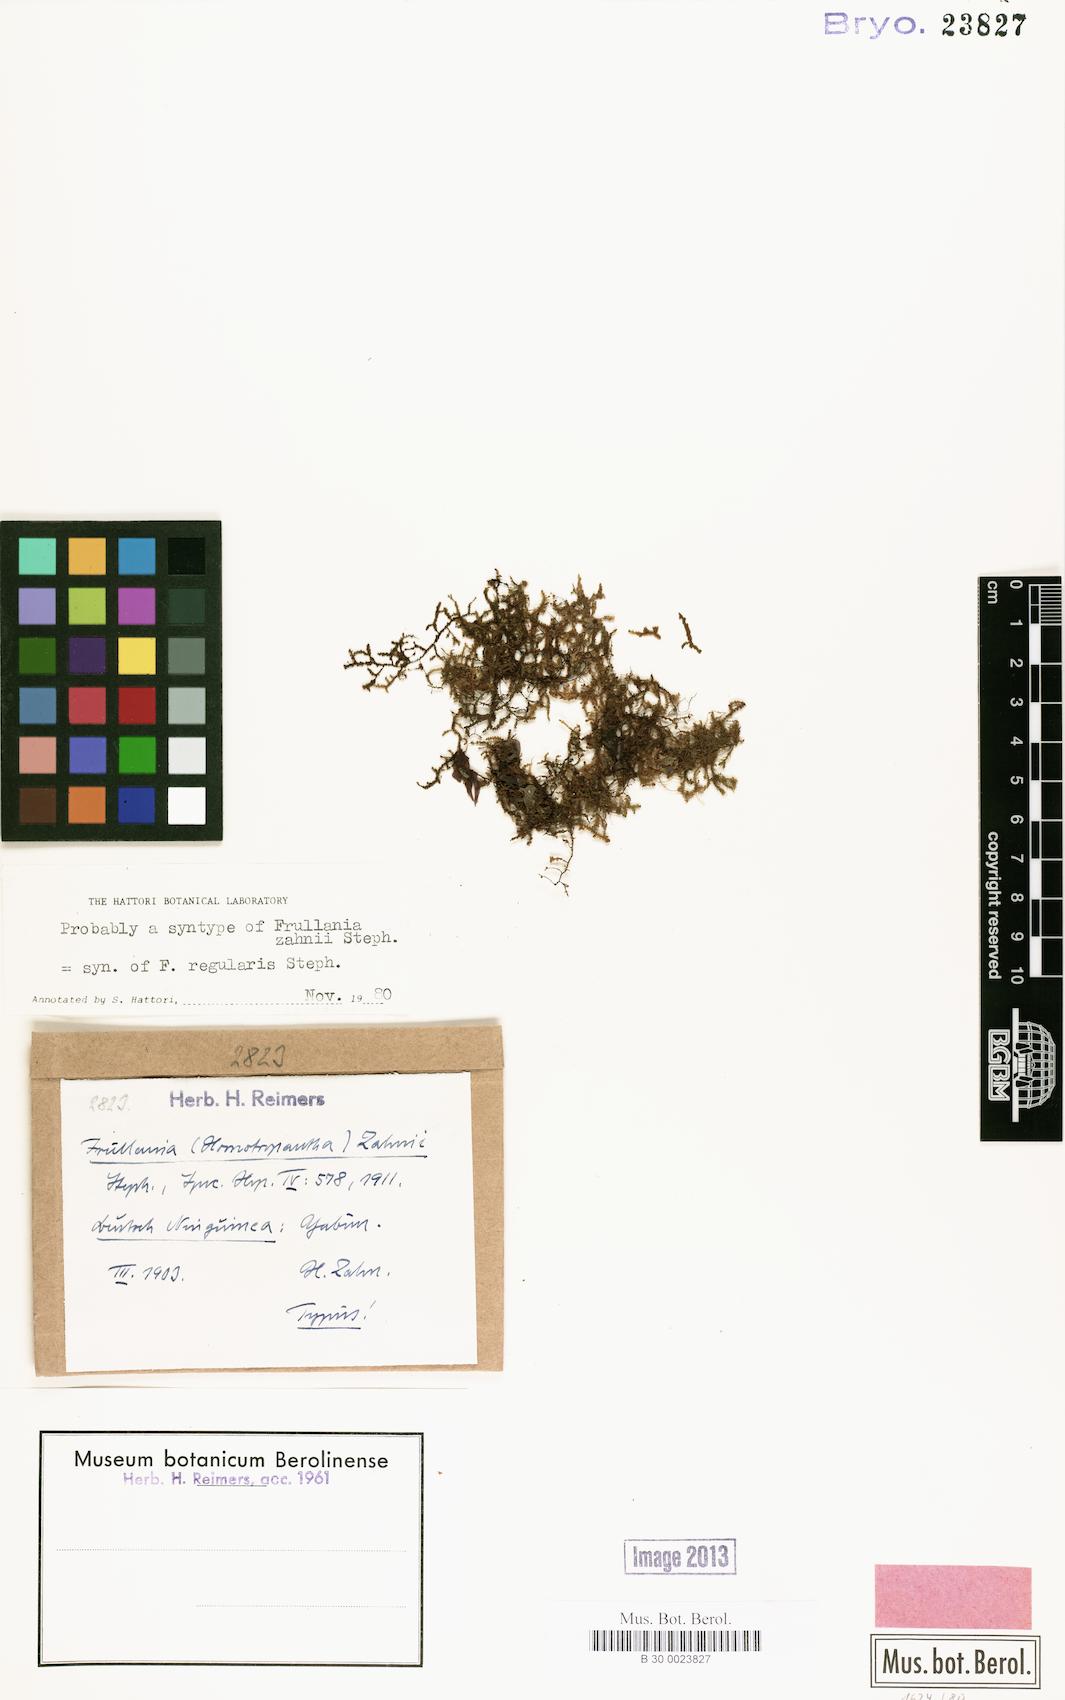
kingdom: Plantae
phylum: Marchantiophyta
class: Jungermanniopsida
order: Porellales
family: Frullaniaceae
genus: Frullania
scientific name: Frullania regularis
